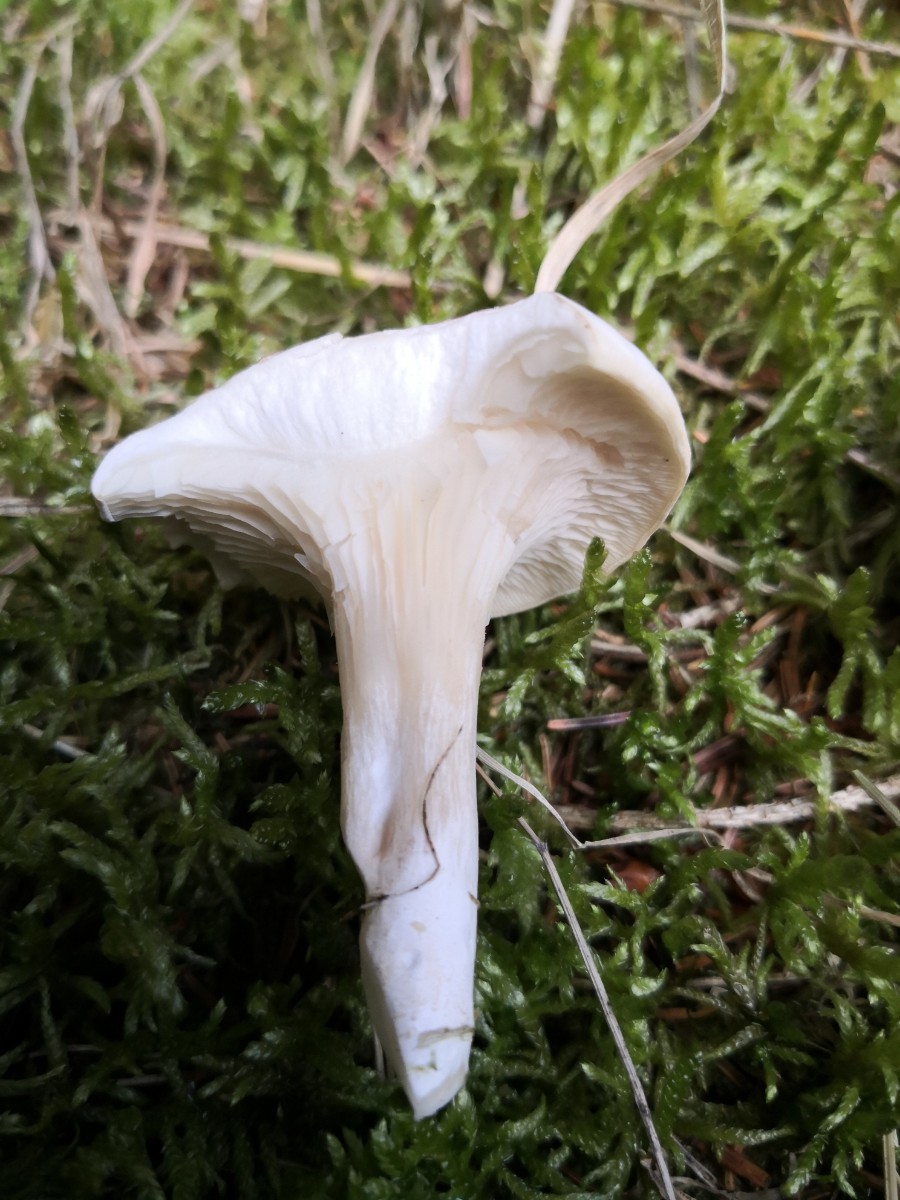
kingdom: Fungi
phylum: Basidiomycota
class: Agaricomycetes
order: Agaricales
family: Entolomataceae
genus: Clitopilus
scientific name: Clitopilus prunulus
